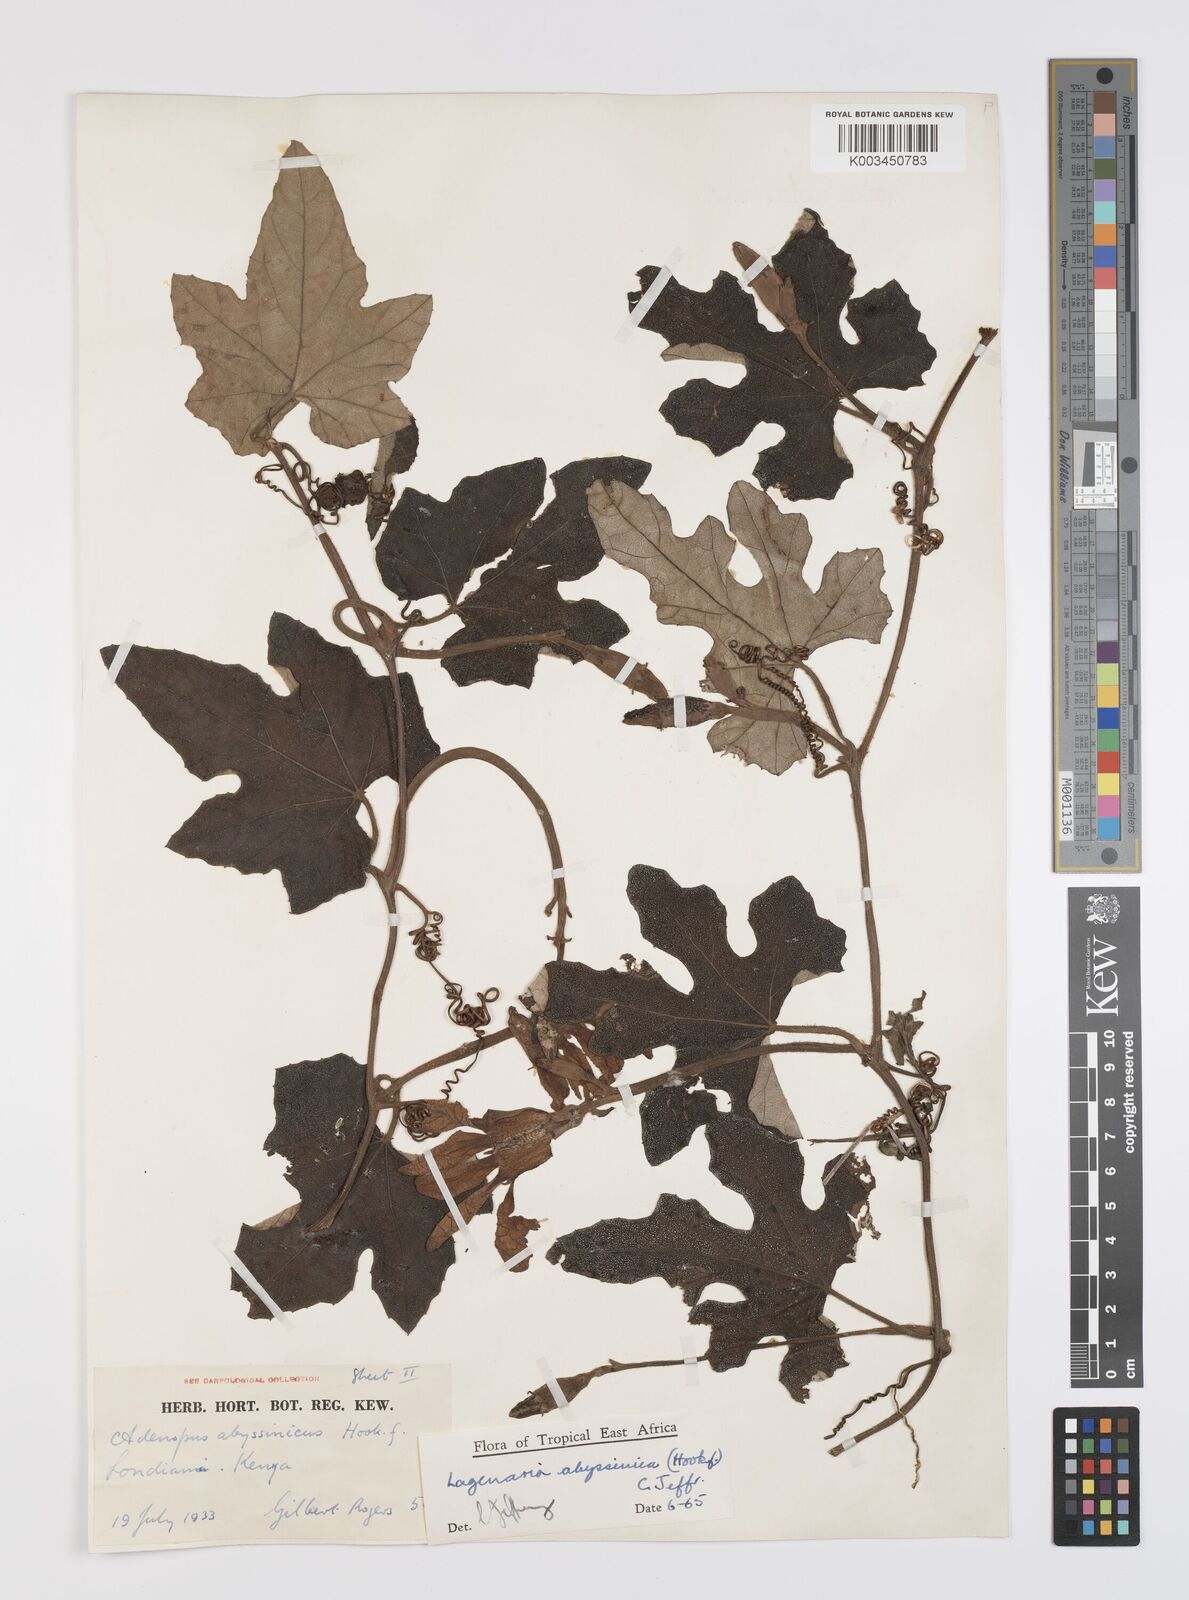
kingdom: Plantae
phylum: Tracheophyta
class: Magnoliopsida
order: Cucurbitales
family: Cucurbitaceae
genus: Lagenaria
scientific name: Lagenaria abyssinica
